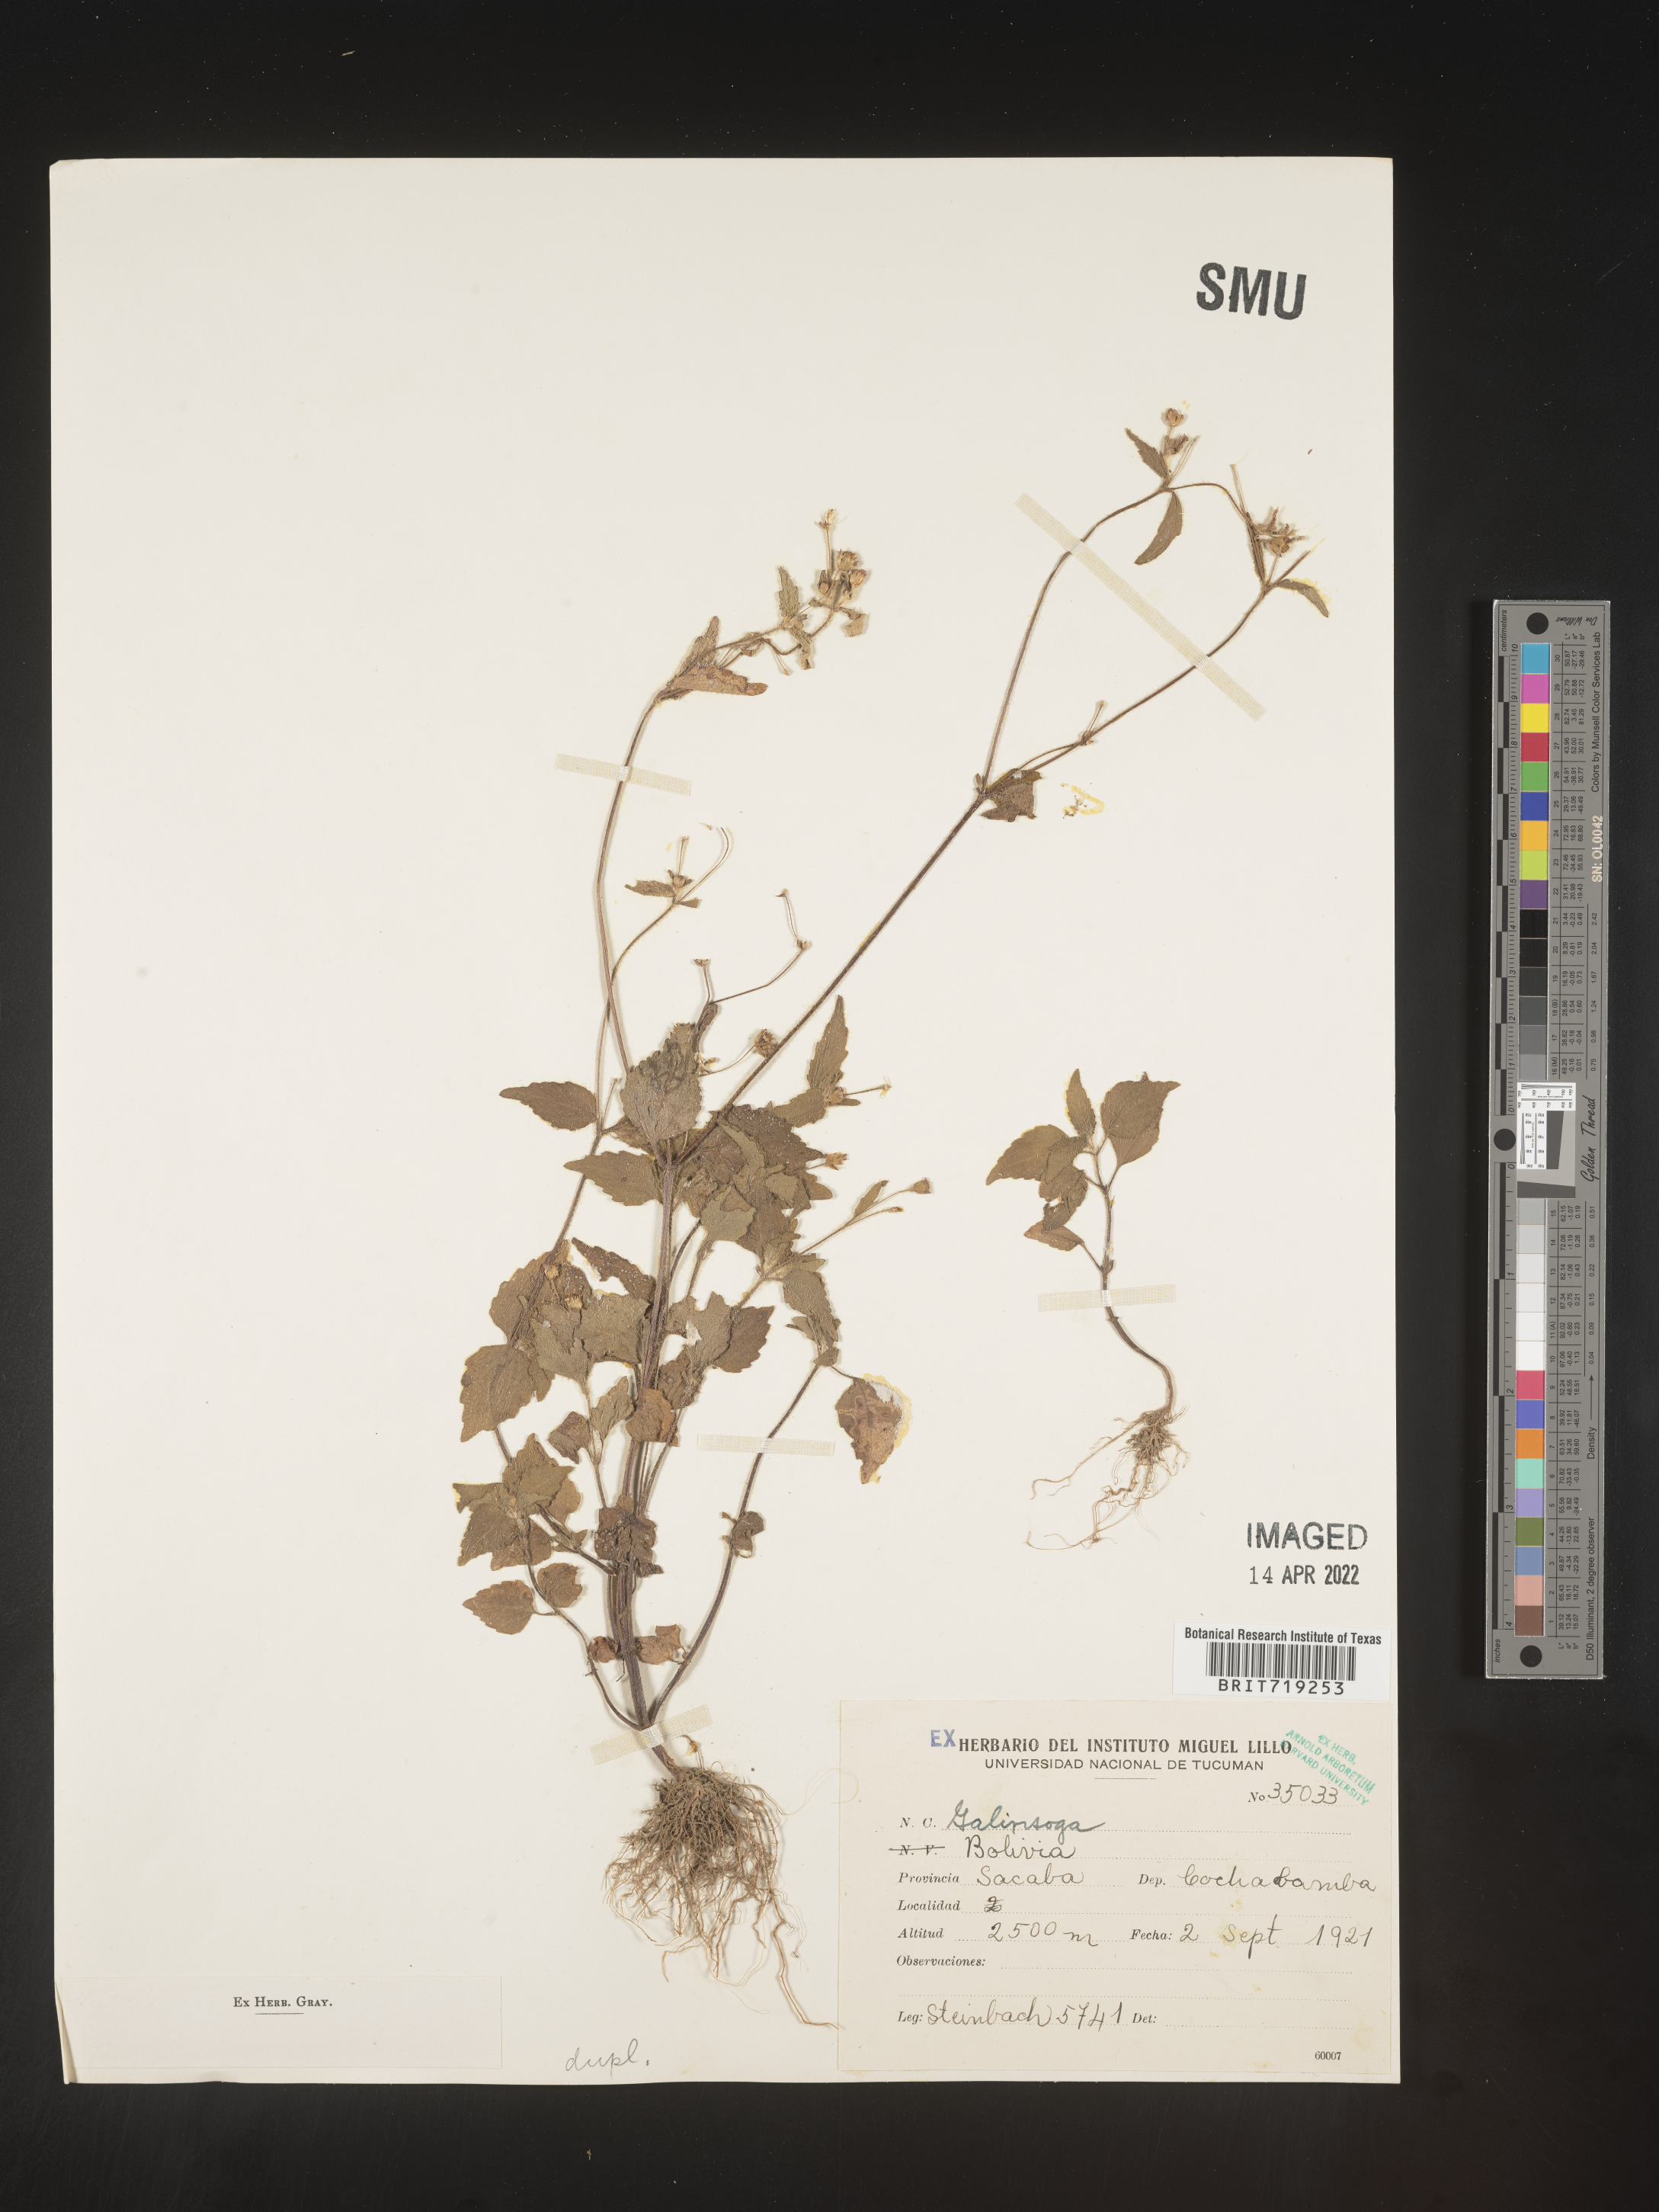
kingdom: Plantae
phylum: Tracheophyta
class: Magnoliopsida
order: Asterales
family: Asteraceae
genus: Galinsoga
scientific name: Galinsoga
